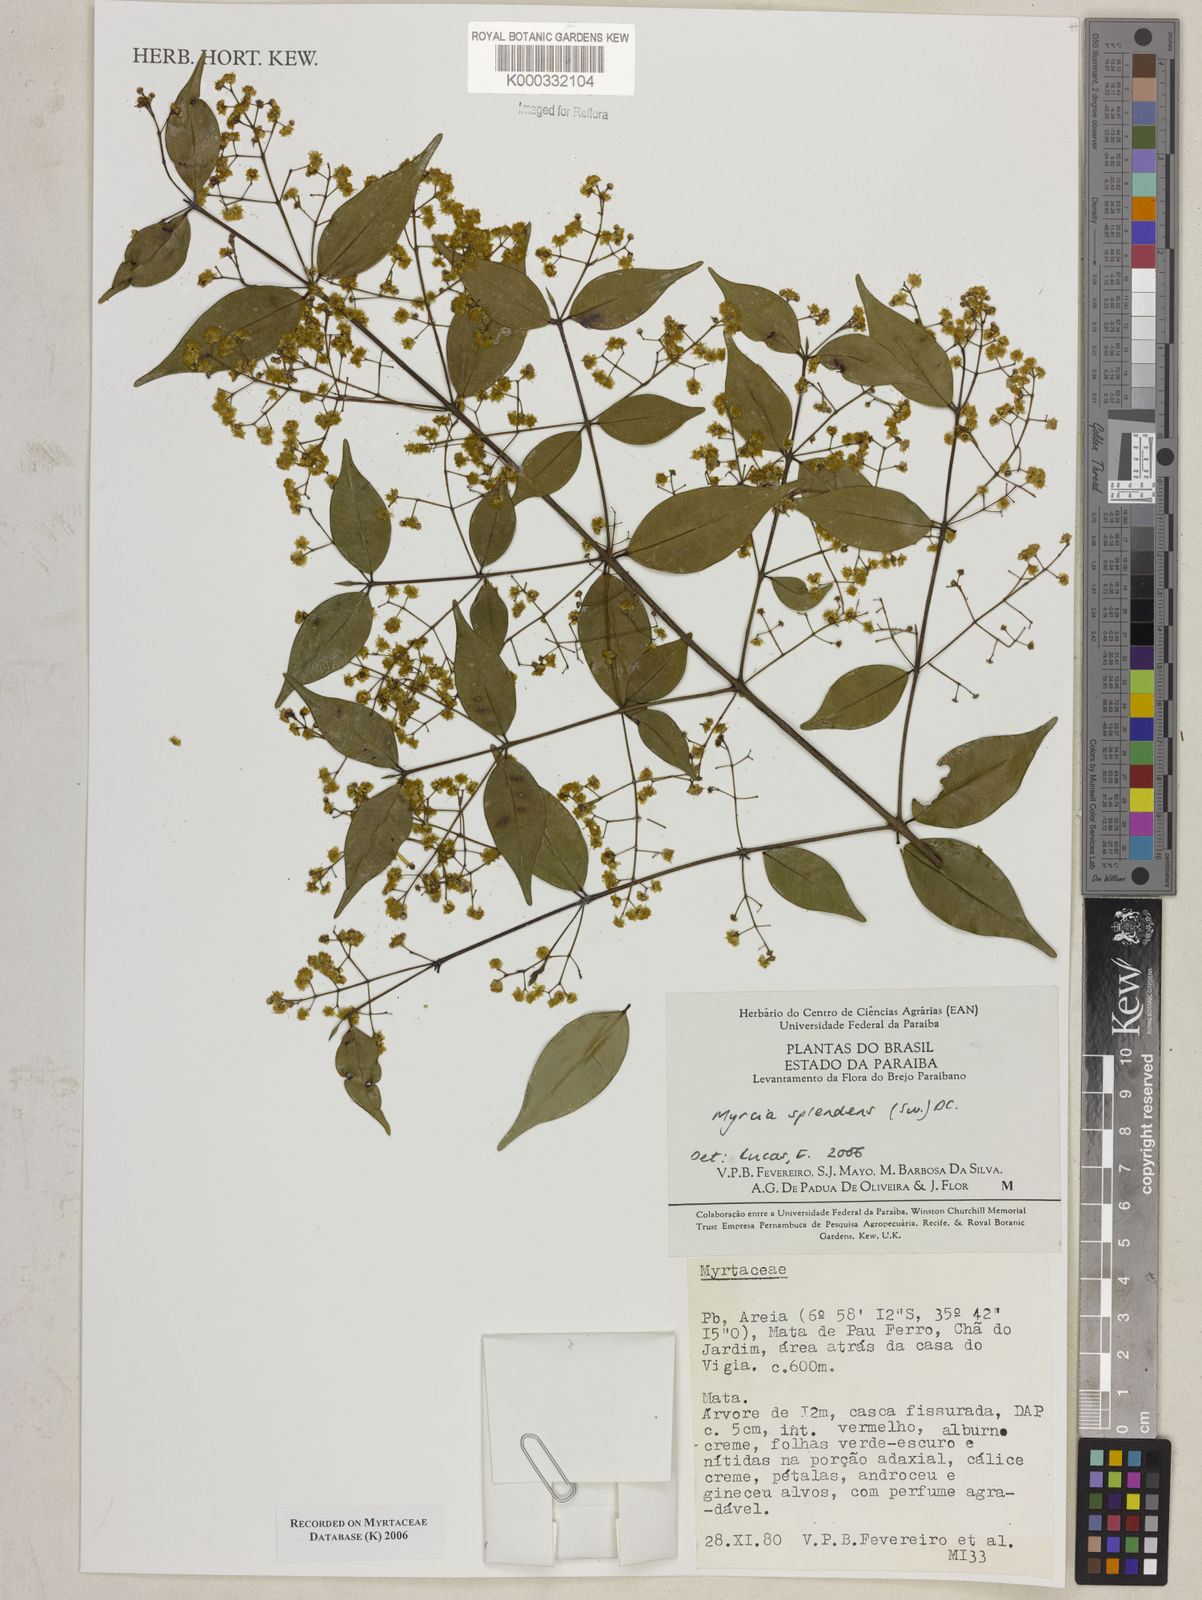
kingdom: Plantae
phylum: Tracheophyta
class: Magnoliopsida
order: Myrtales
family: Myrtaceae
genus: Myrcia
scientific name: Myrcia splendens
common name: Surinam cherry
